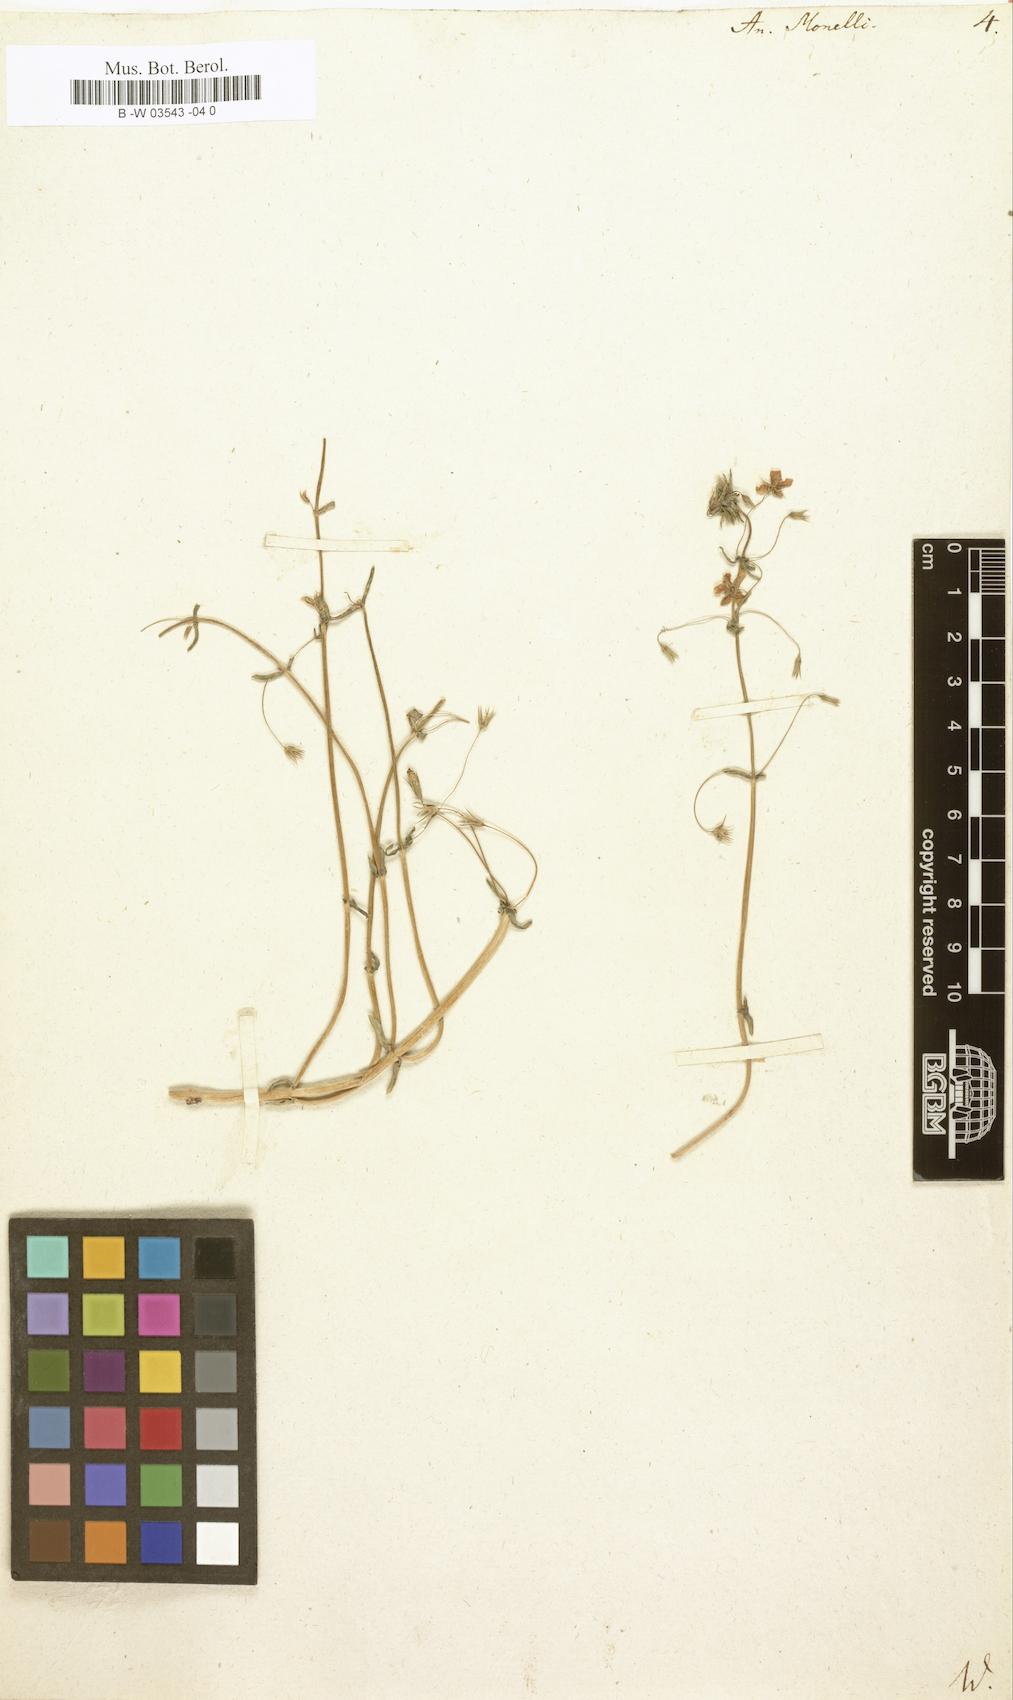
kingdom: Plantae
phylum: Tracheophyta
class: Magnoliopsida
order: Ericales
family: Primulaceae
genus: Lysimachia
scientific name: Lysimachia arvensis
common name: Scarlet pimpernel
